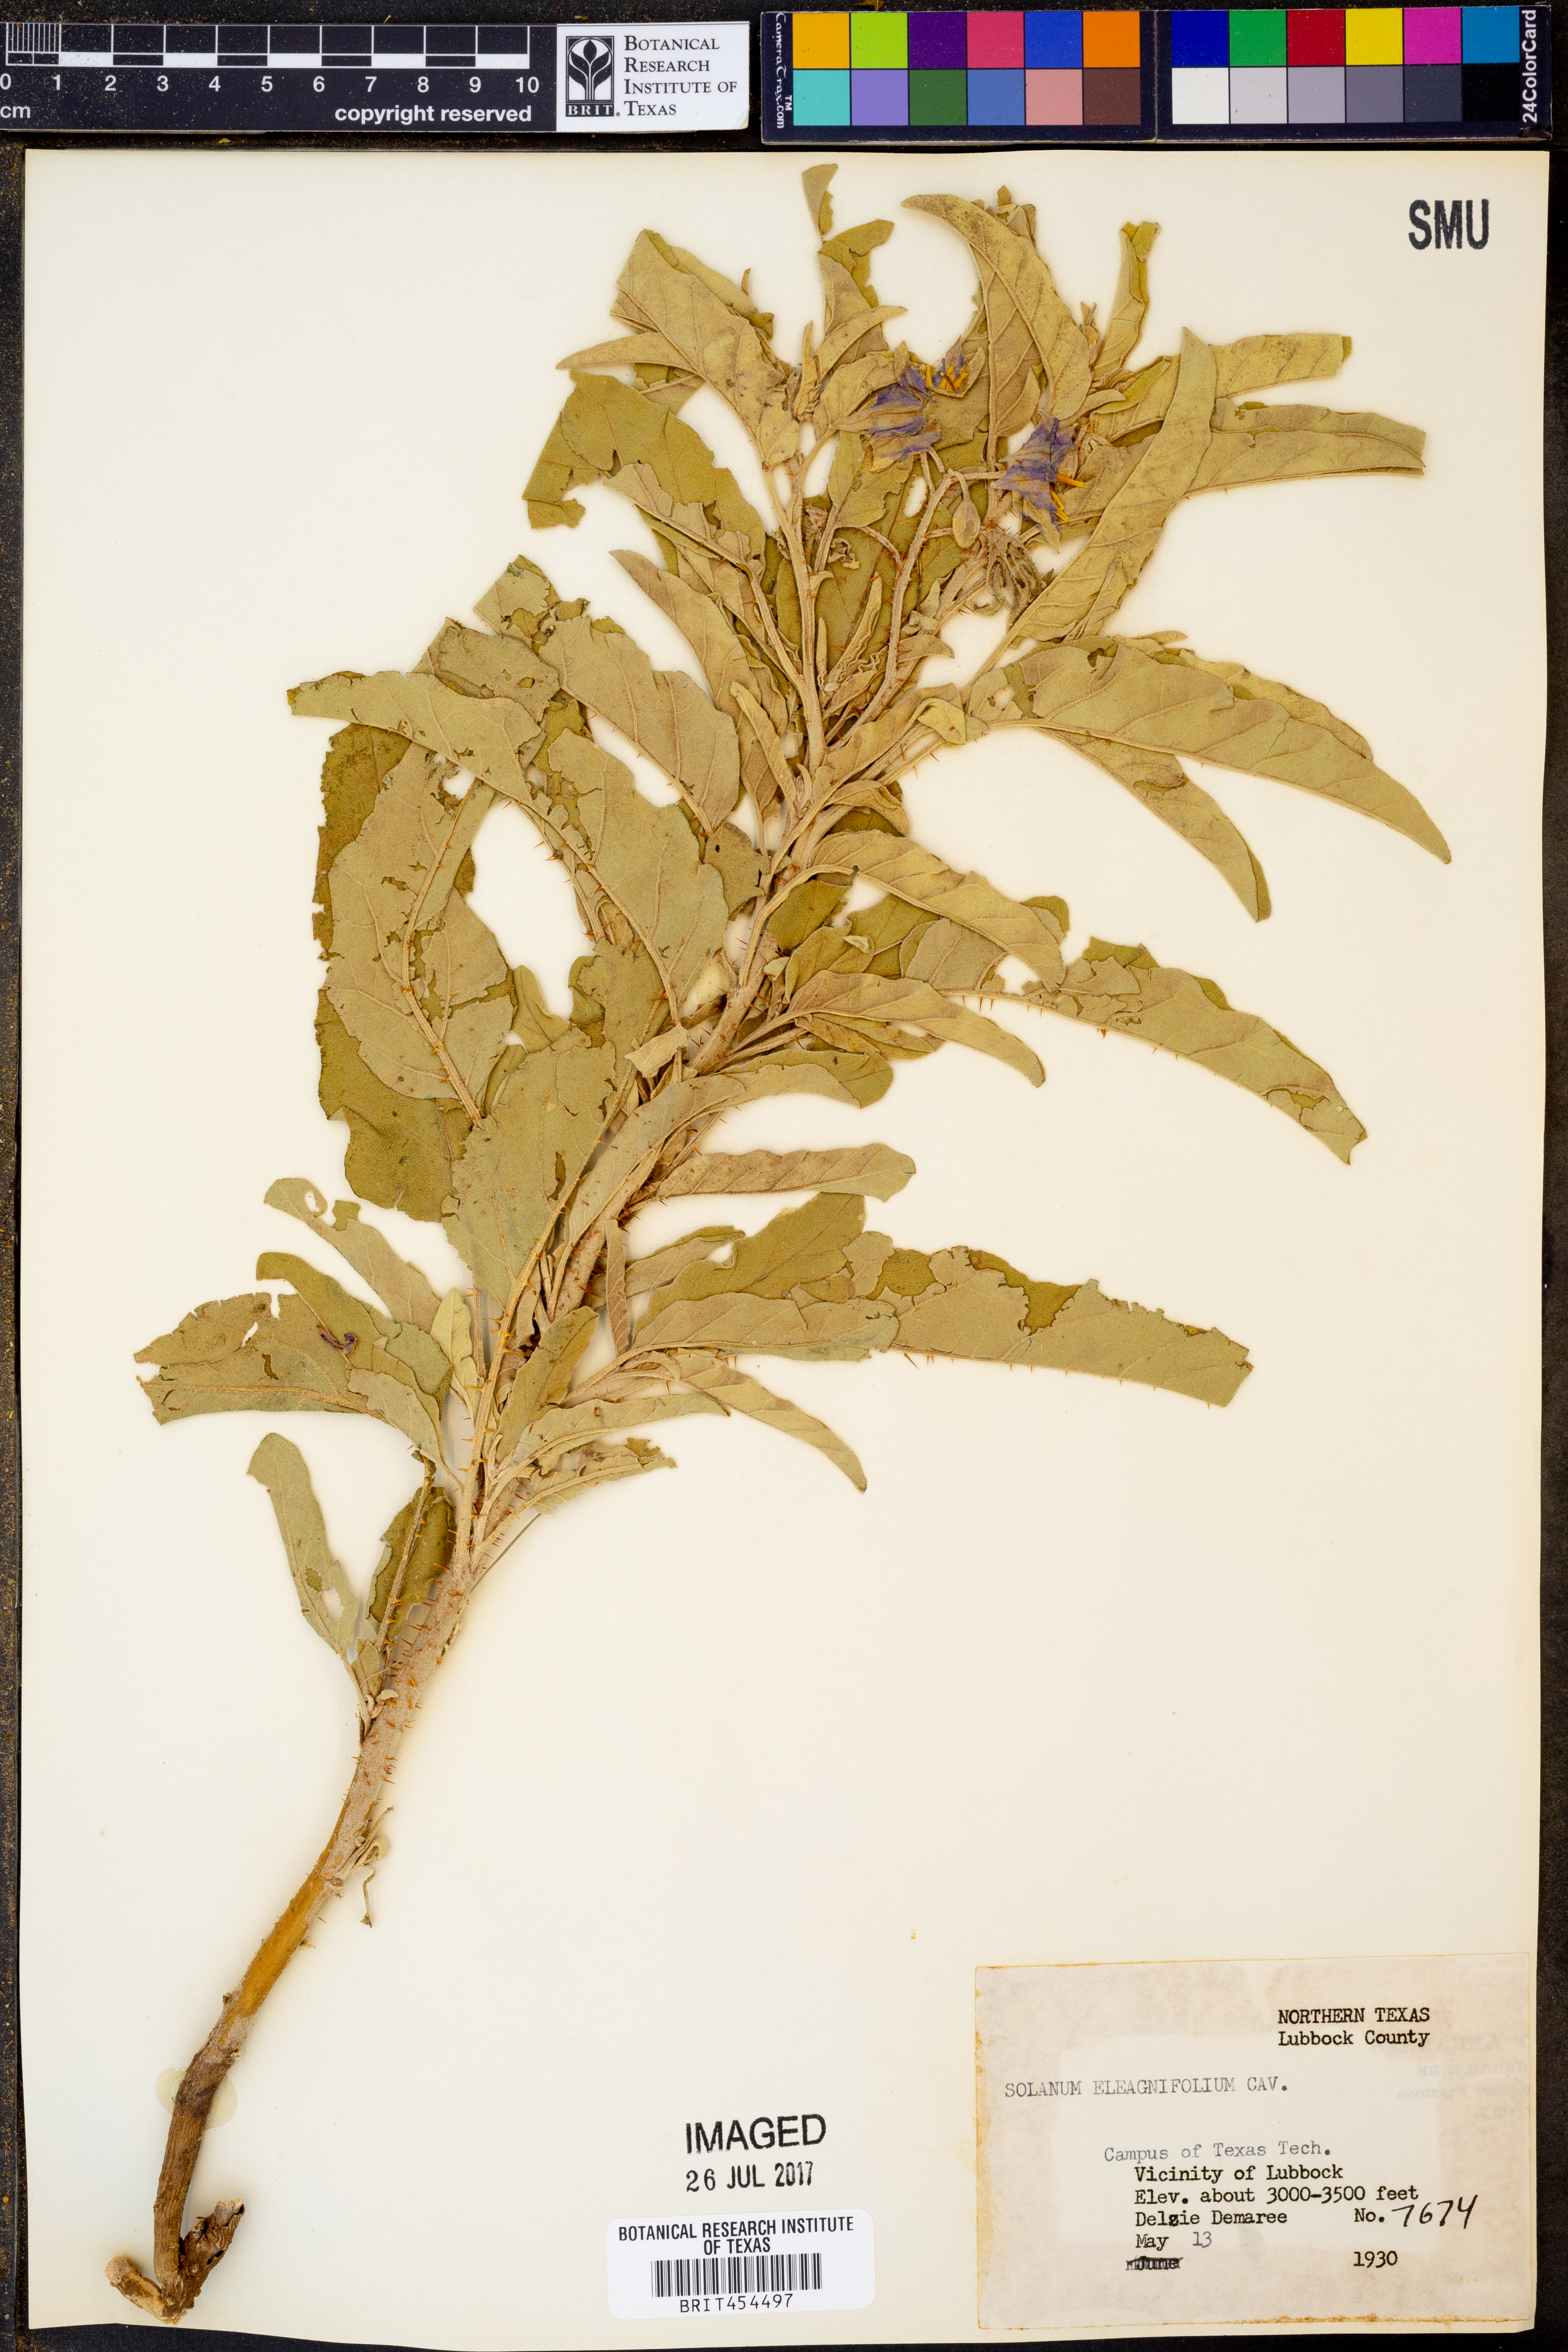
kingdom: Plantae
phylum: Tracheophyta
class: Magnoliopsida
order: Solanales
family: Solanaceae
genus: Solanum
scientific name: Solanum elaeagnifolium
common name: Silverleaf nightshade
